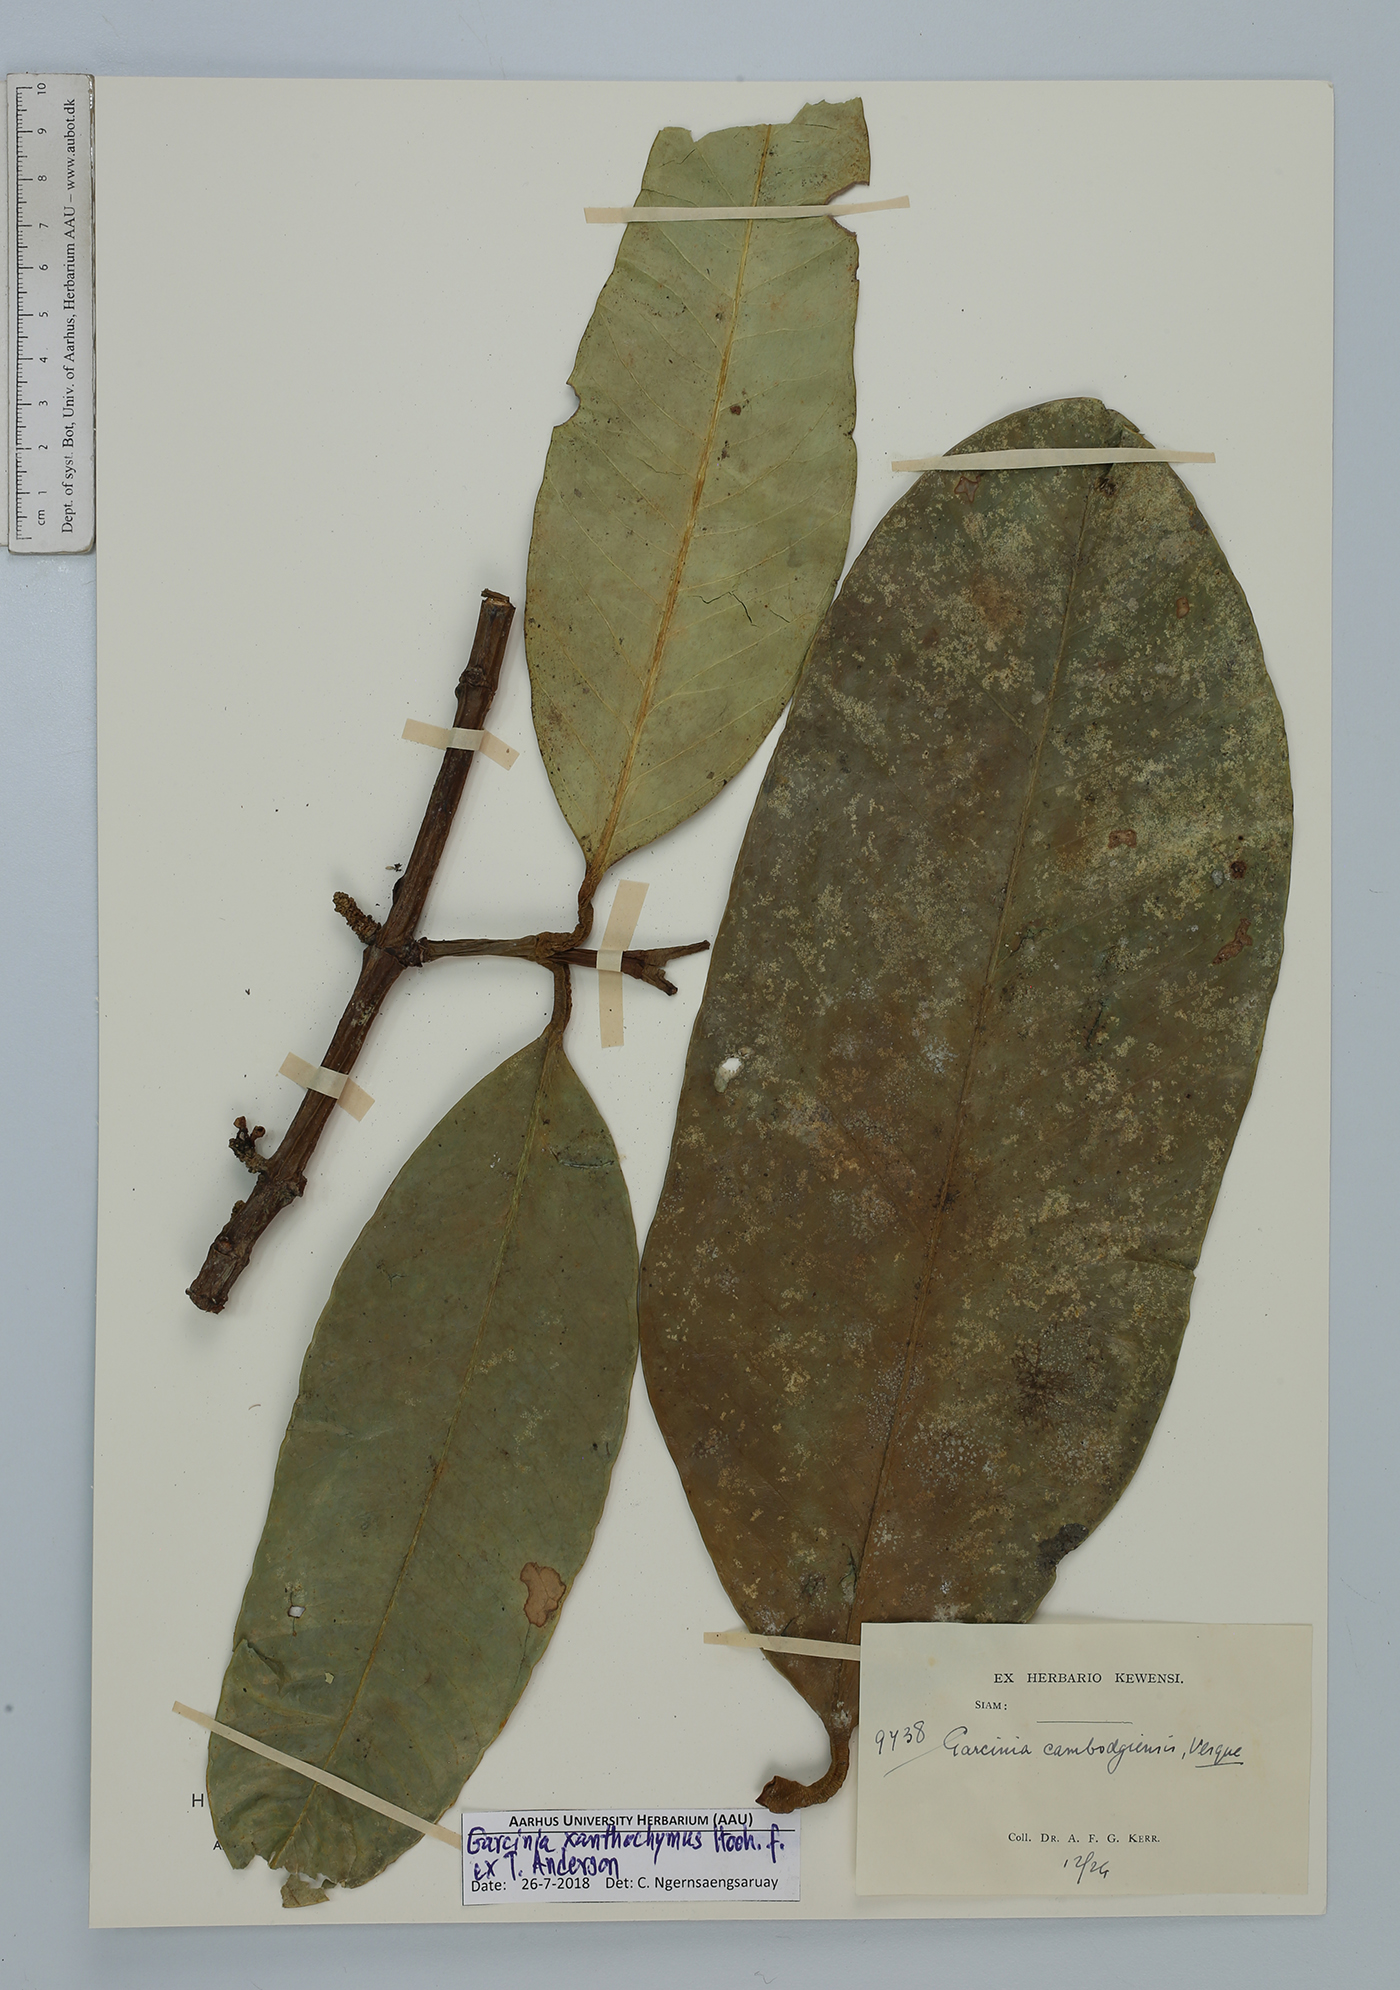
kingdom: Plantae
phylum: Tracheophyta
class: Magnoliopsida
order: Malpighiales
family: Clusiaceae
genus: Garcinia
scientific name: Garcinia xanthochymus
